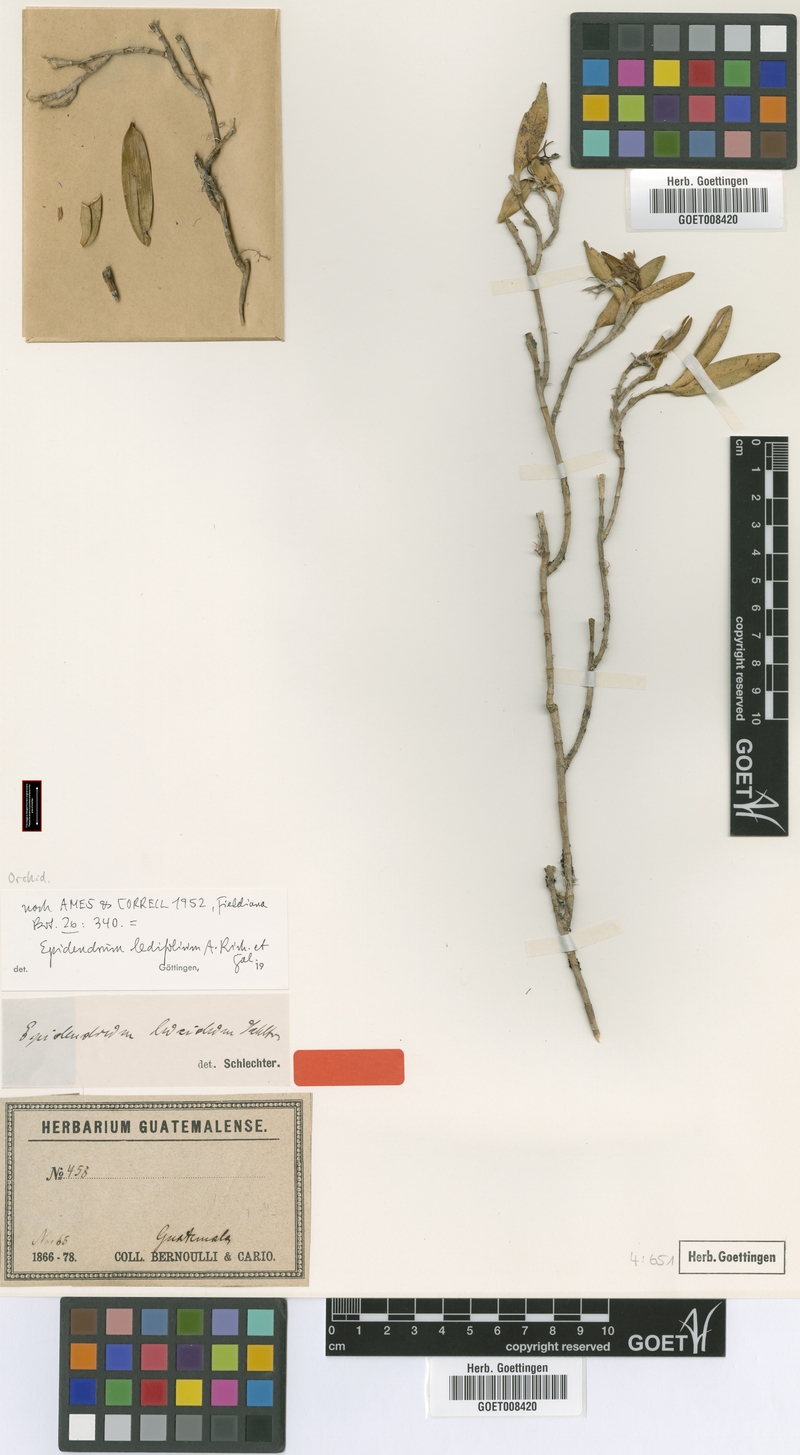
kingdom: Plantae
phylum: Tracheophyta
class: Liliopsida
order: Asparagales
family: Orchidaceae
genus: Epidendrum
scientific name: Epidendrum lignosum
